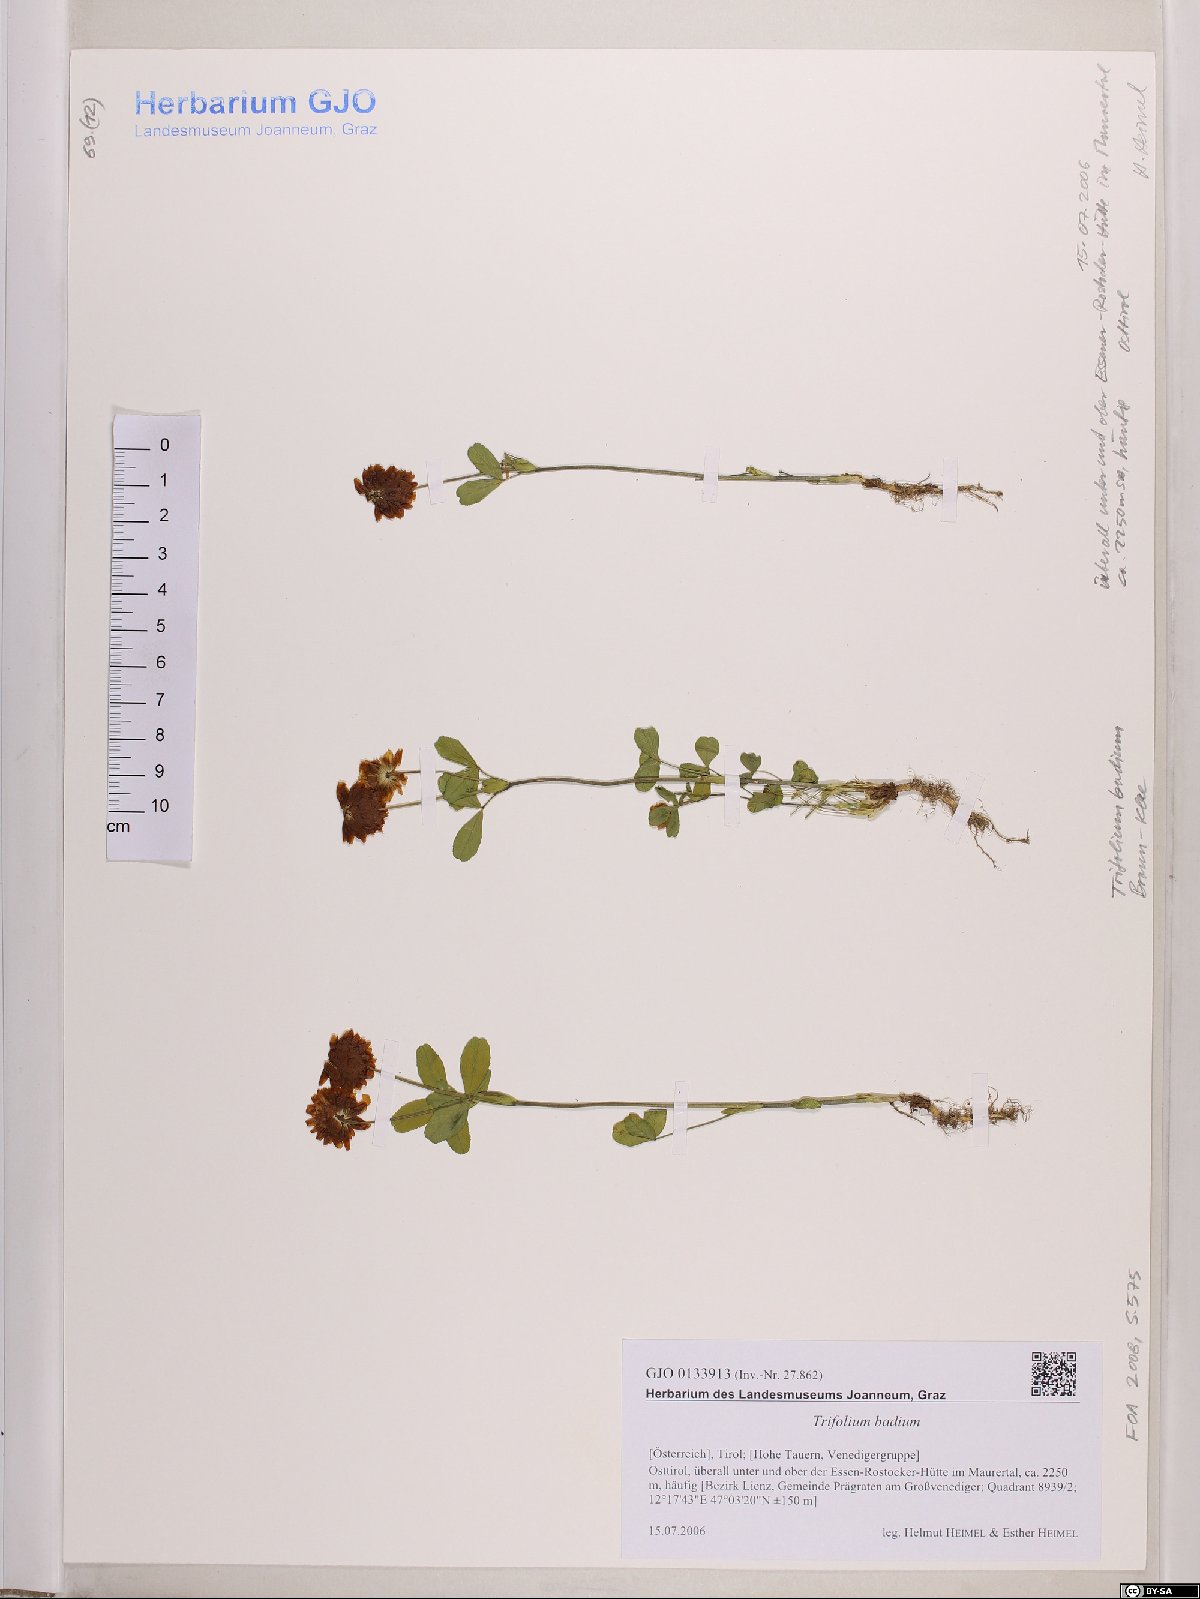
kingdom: Plantae
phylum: Tracheophyta
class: Magnoliopsida
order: Fabales
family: Fabaceae
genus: Trifolium
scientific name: Trifolium badium
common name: Brown clover
